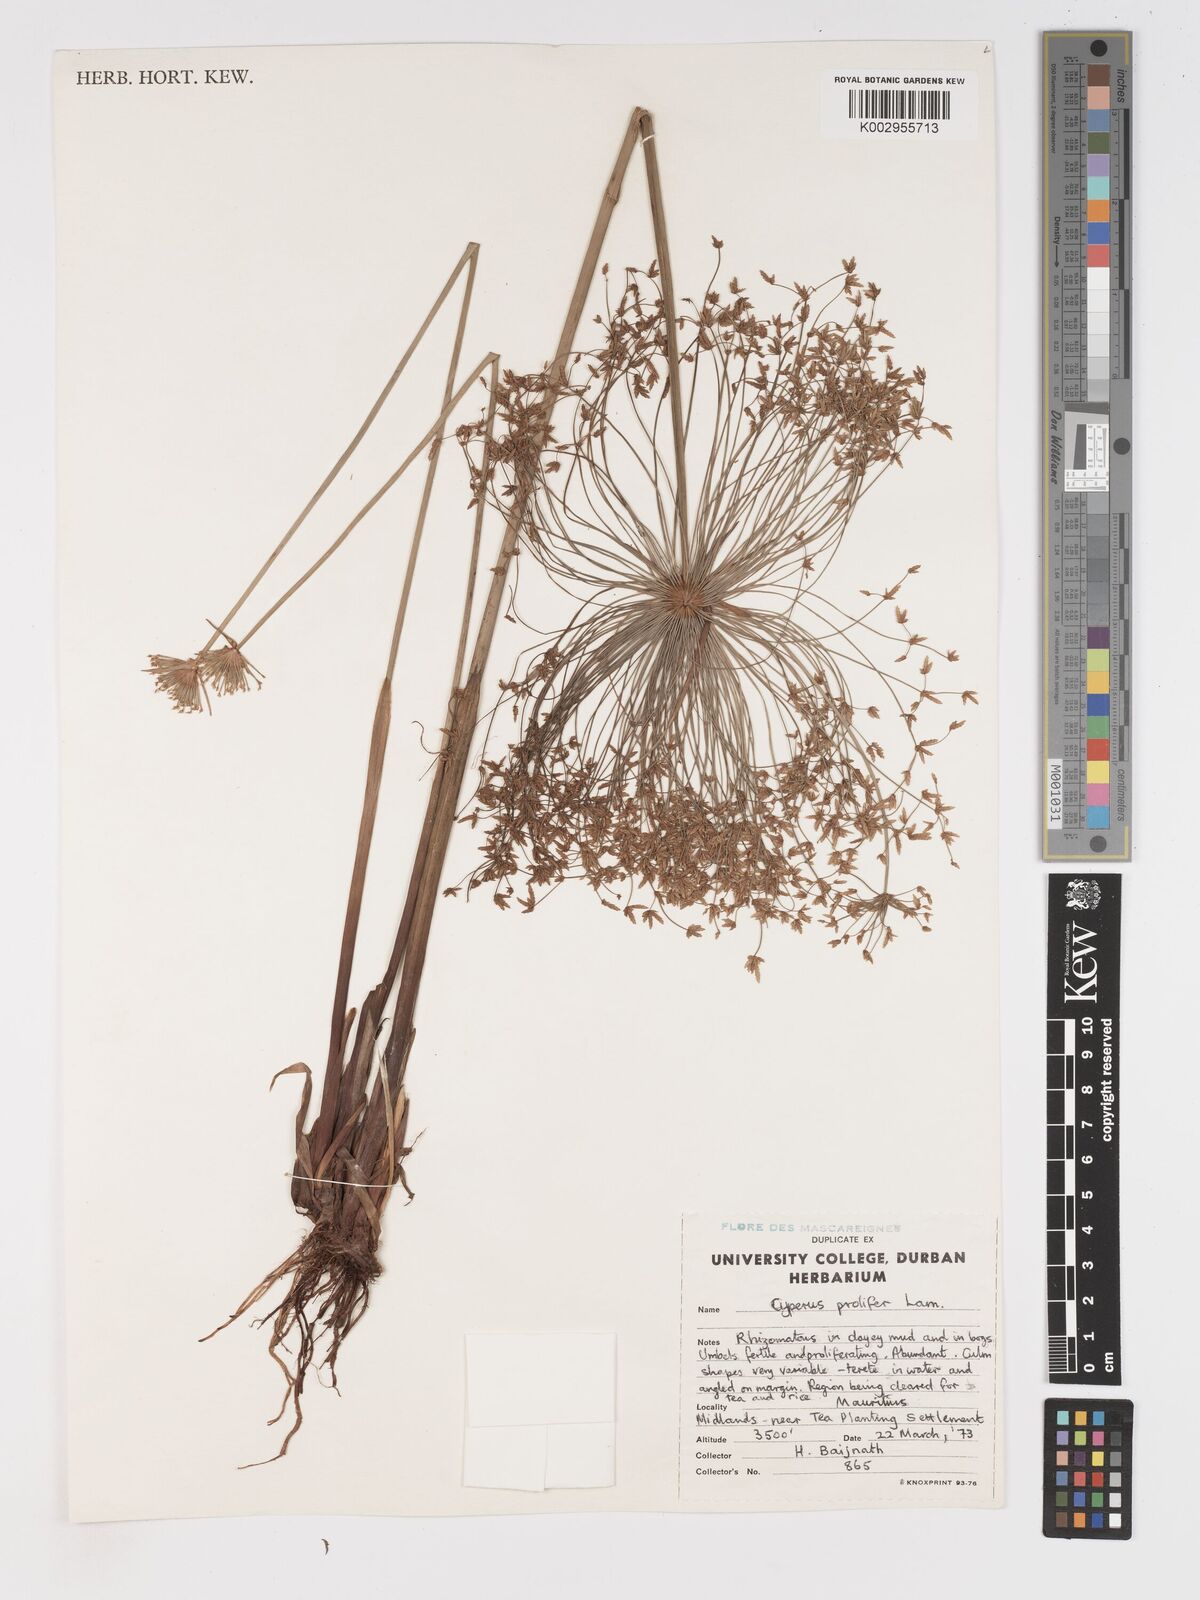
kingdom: Plantae
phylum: Tracheophyta
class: Liliopsida
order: Poales
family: Cyperaceae
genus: Cyperus
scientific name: Cyperus prolifer
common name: Miniature flatsedge
